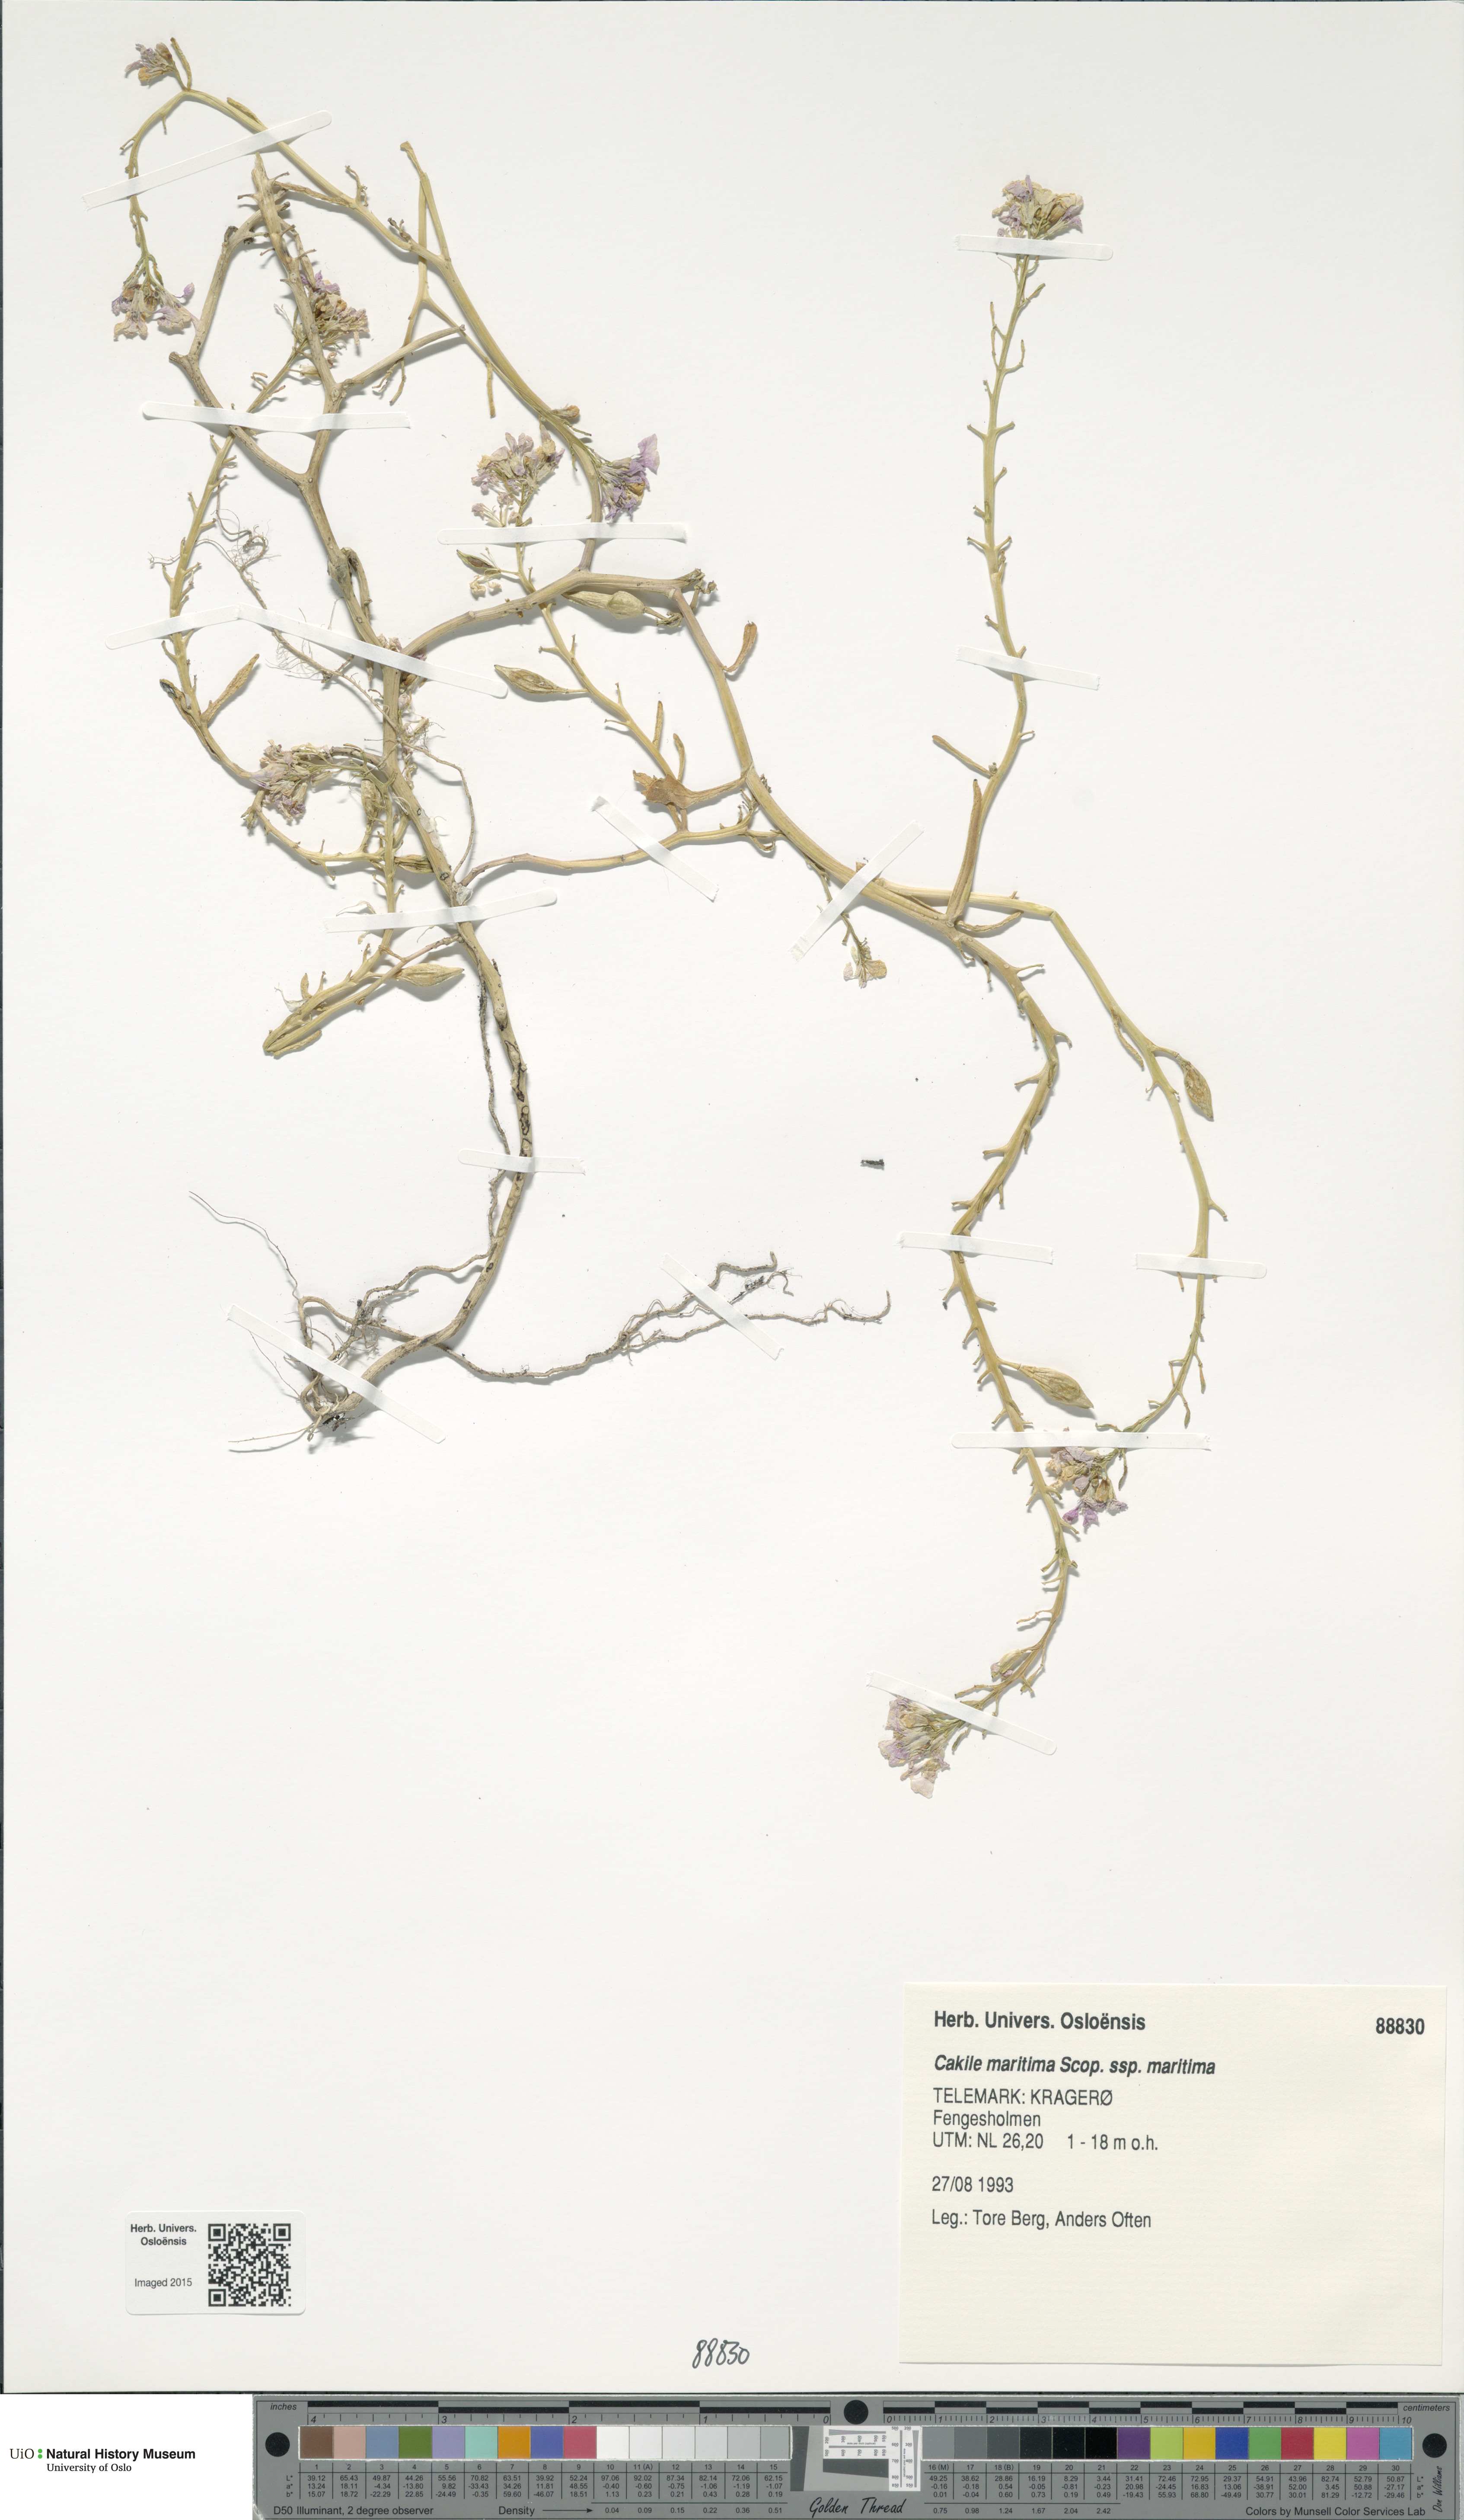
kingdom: Plantae
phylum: Tracheophyta
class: Magnoliopsida
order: Brassicales
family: Brassicaceae
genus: Cakile
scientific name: Cakile maritima
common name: Sea rocket
